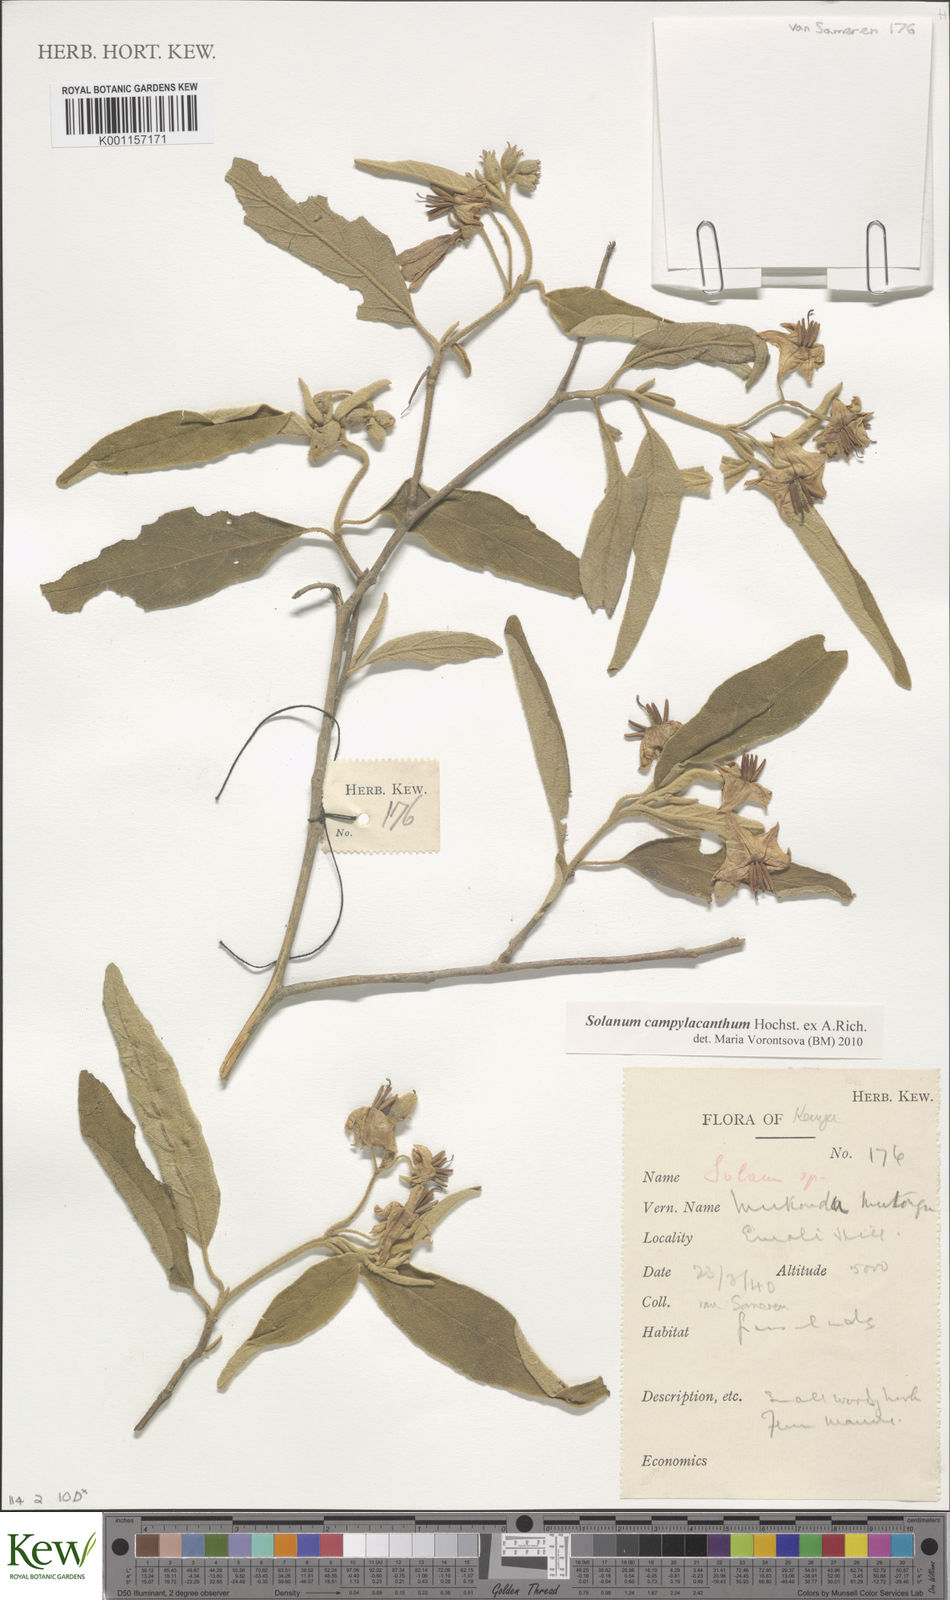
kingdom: Plantae
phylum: Tracheophyta
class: Magnoliopsida
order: Solanales
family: Solanaceae
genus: Solanum
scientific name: Solanum campylacanthum
